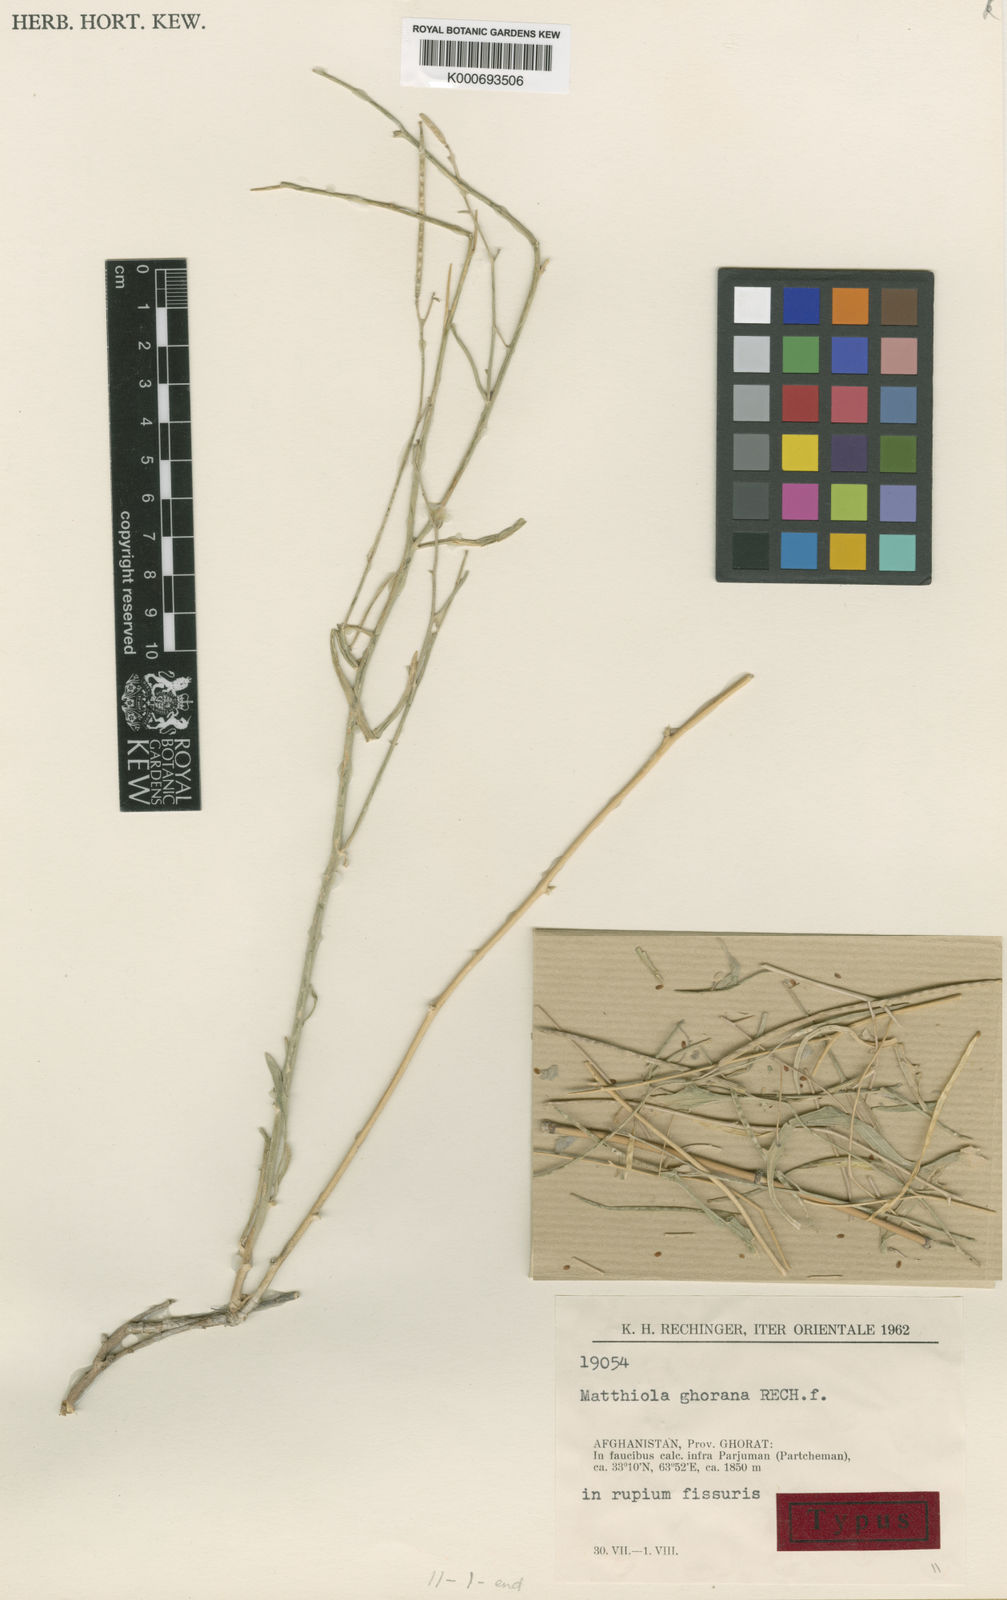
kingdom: Plantae
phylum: Tracheophyta
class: Magnoliopsida
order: Brassicales
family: Brassicaceae
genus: Matthiola
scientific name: Matthiola
